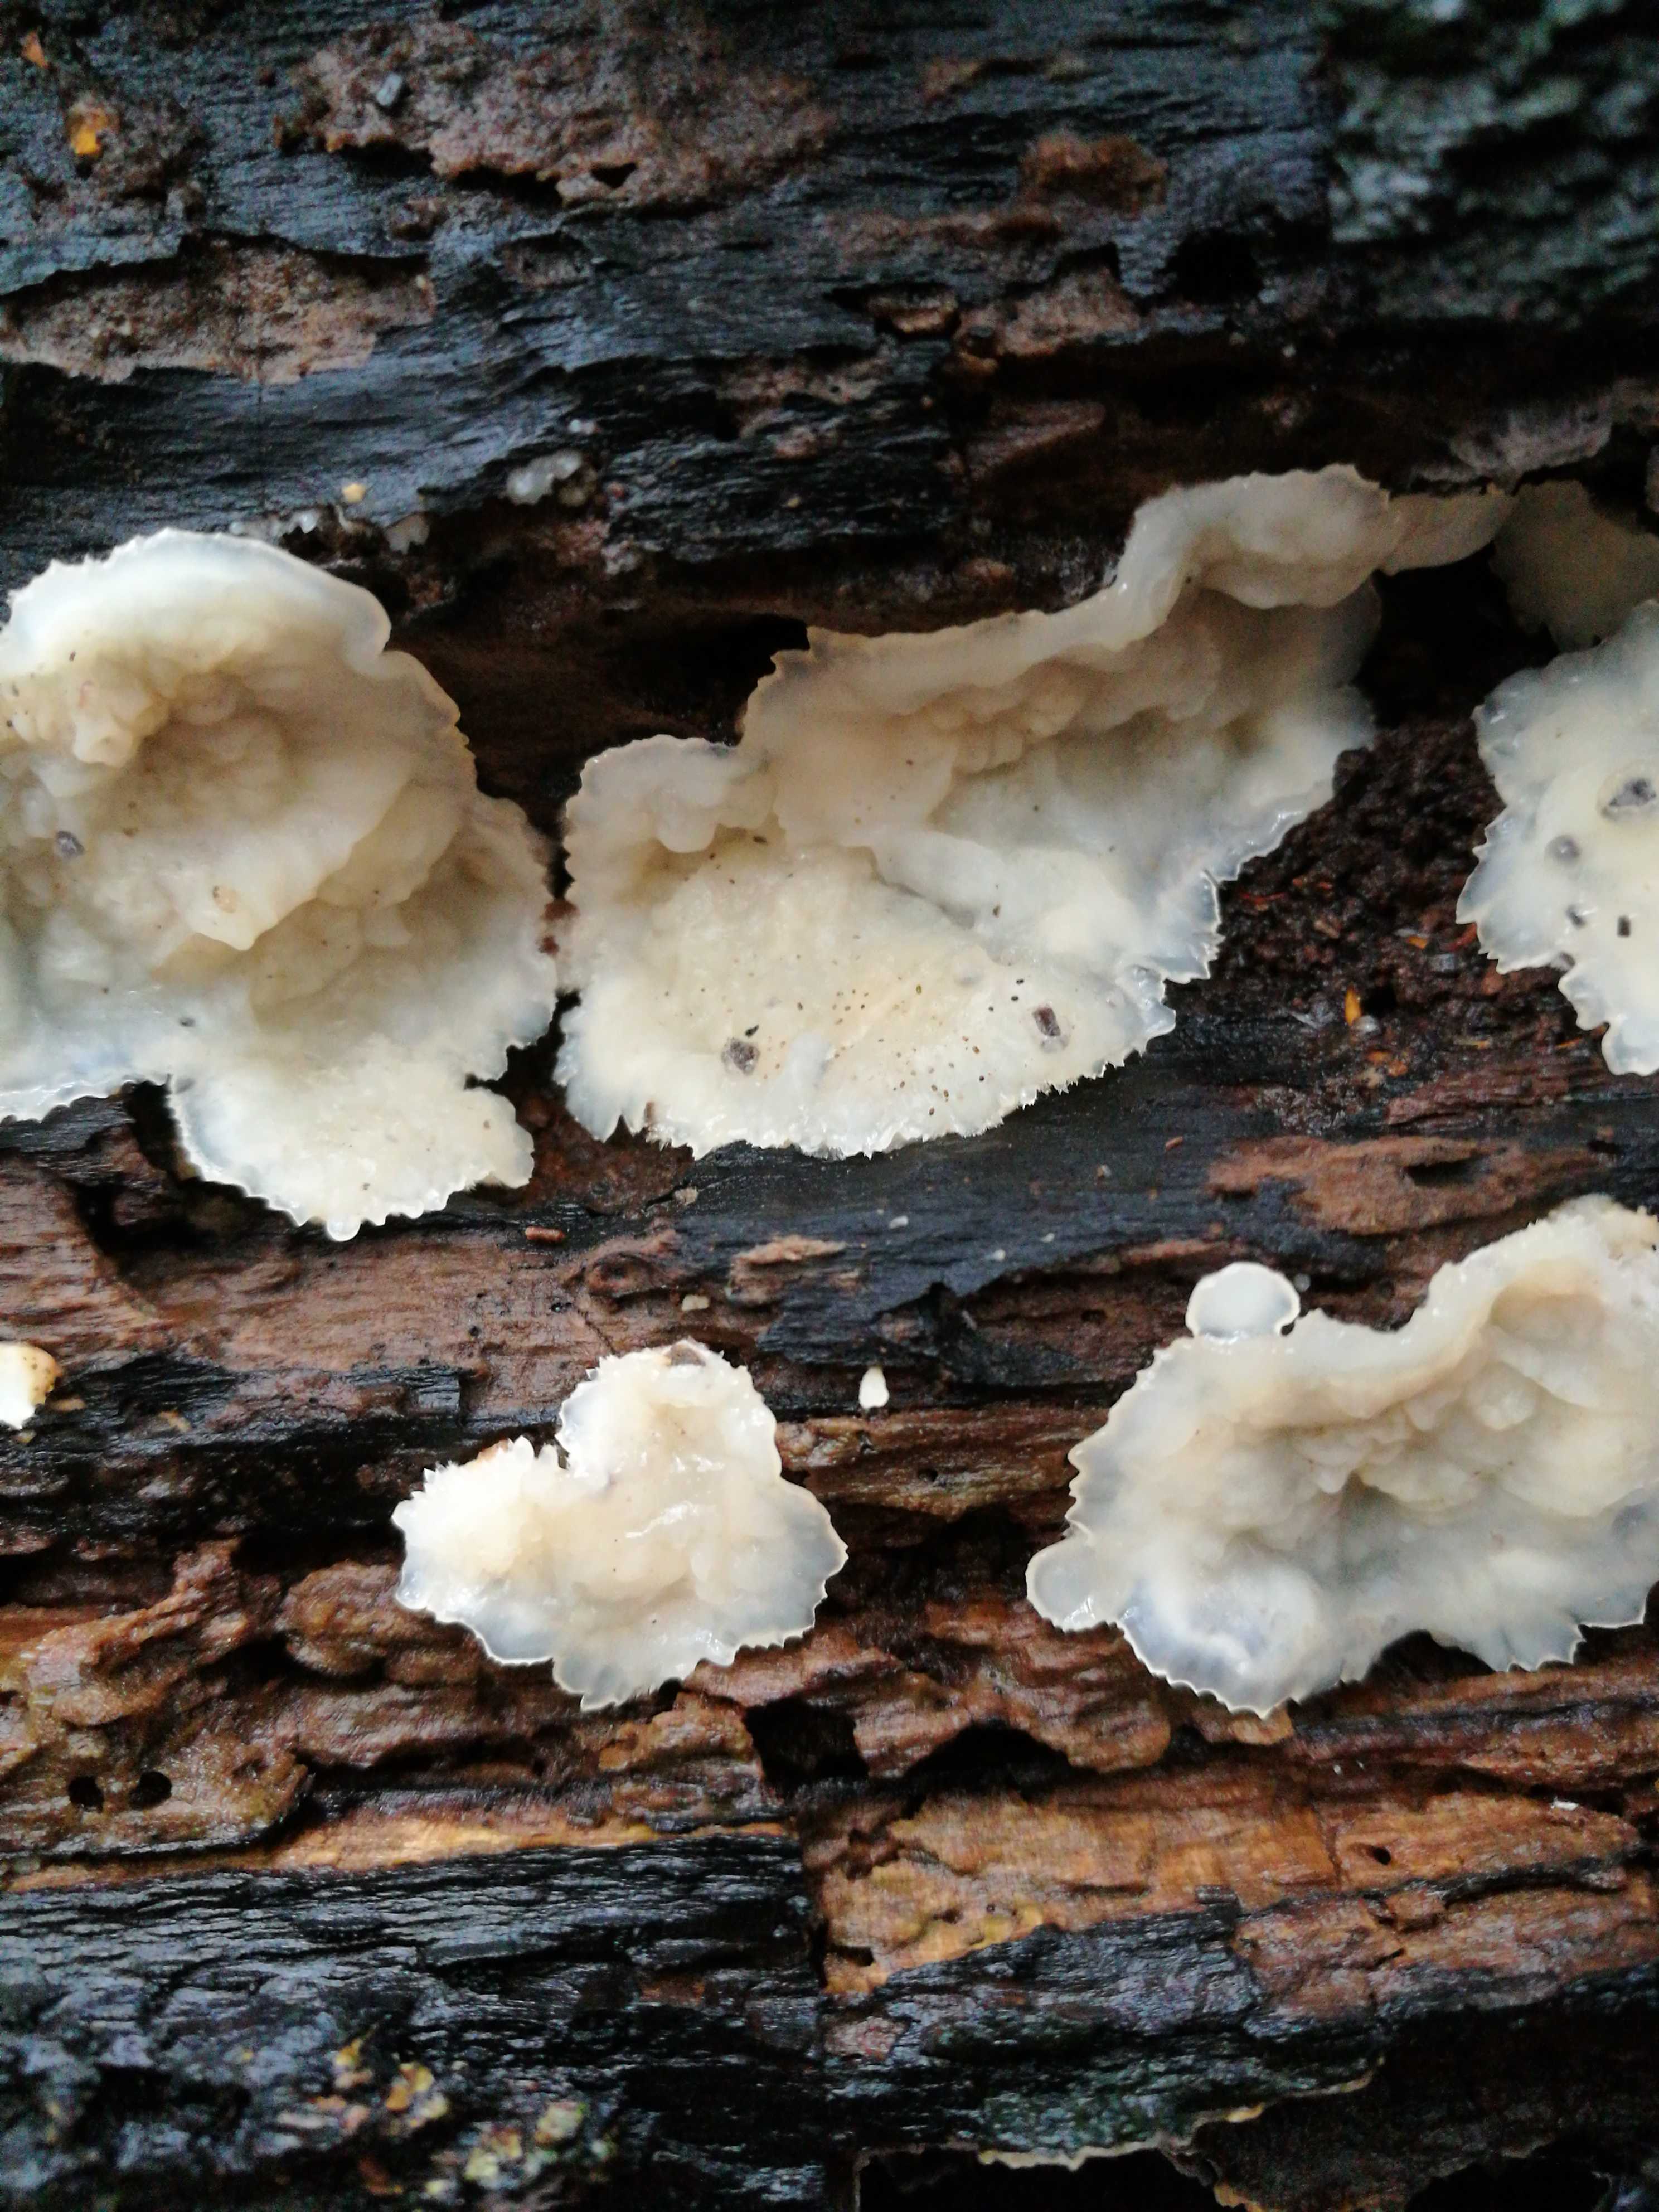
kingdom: Fungi
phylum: Basidiomycota
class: Agaricomycetes
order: Polyporales
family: Meruliaceae
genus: Phlebia
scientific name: Phlebia tremellosa
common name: bævrende åresvamp
